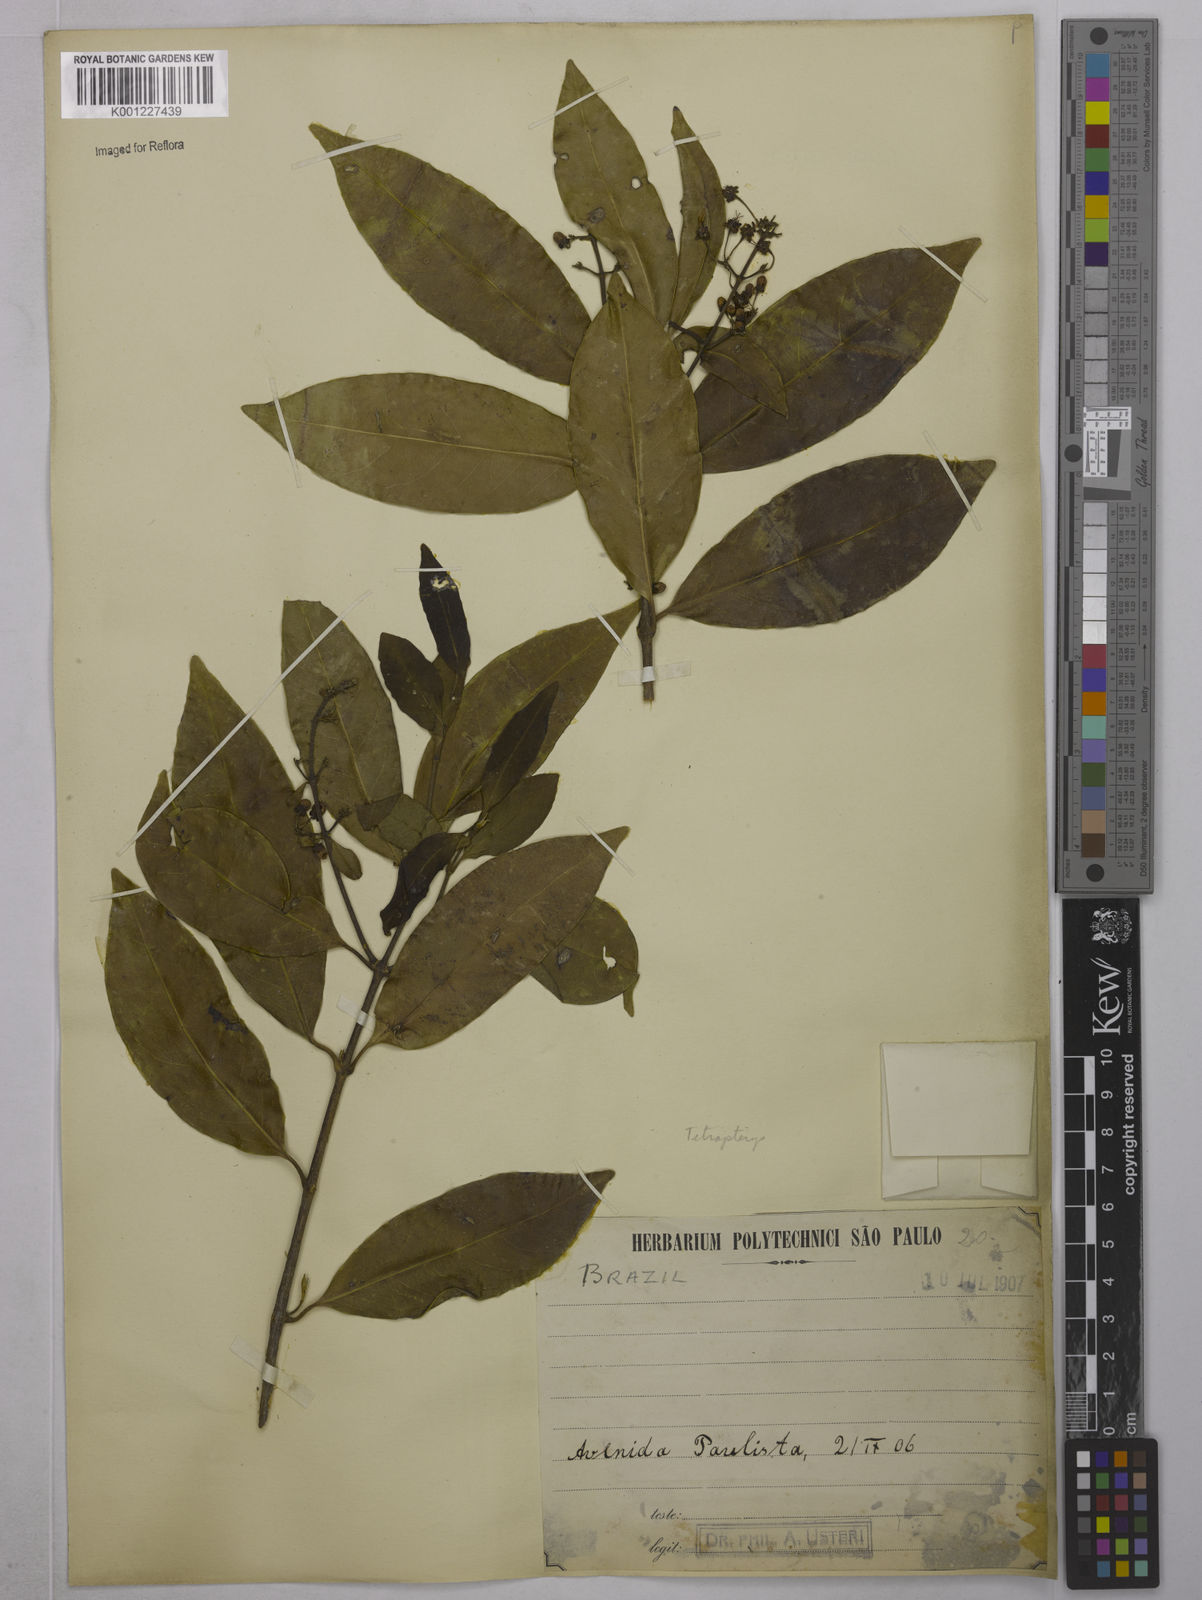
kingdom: Plantae
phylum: Tracheophyta
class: Magnoliopsida
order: Malpighiales
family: Malpighiaceae
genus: Tetrapterys
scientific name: Tetrapterys
